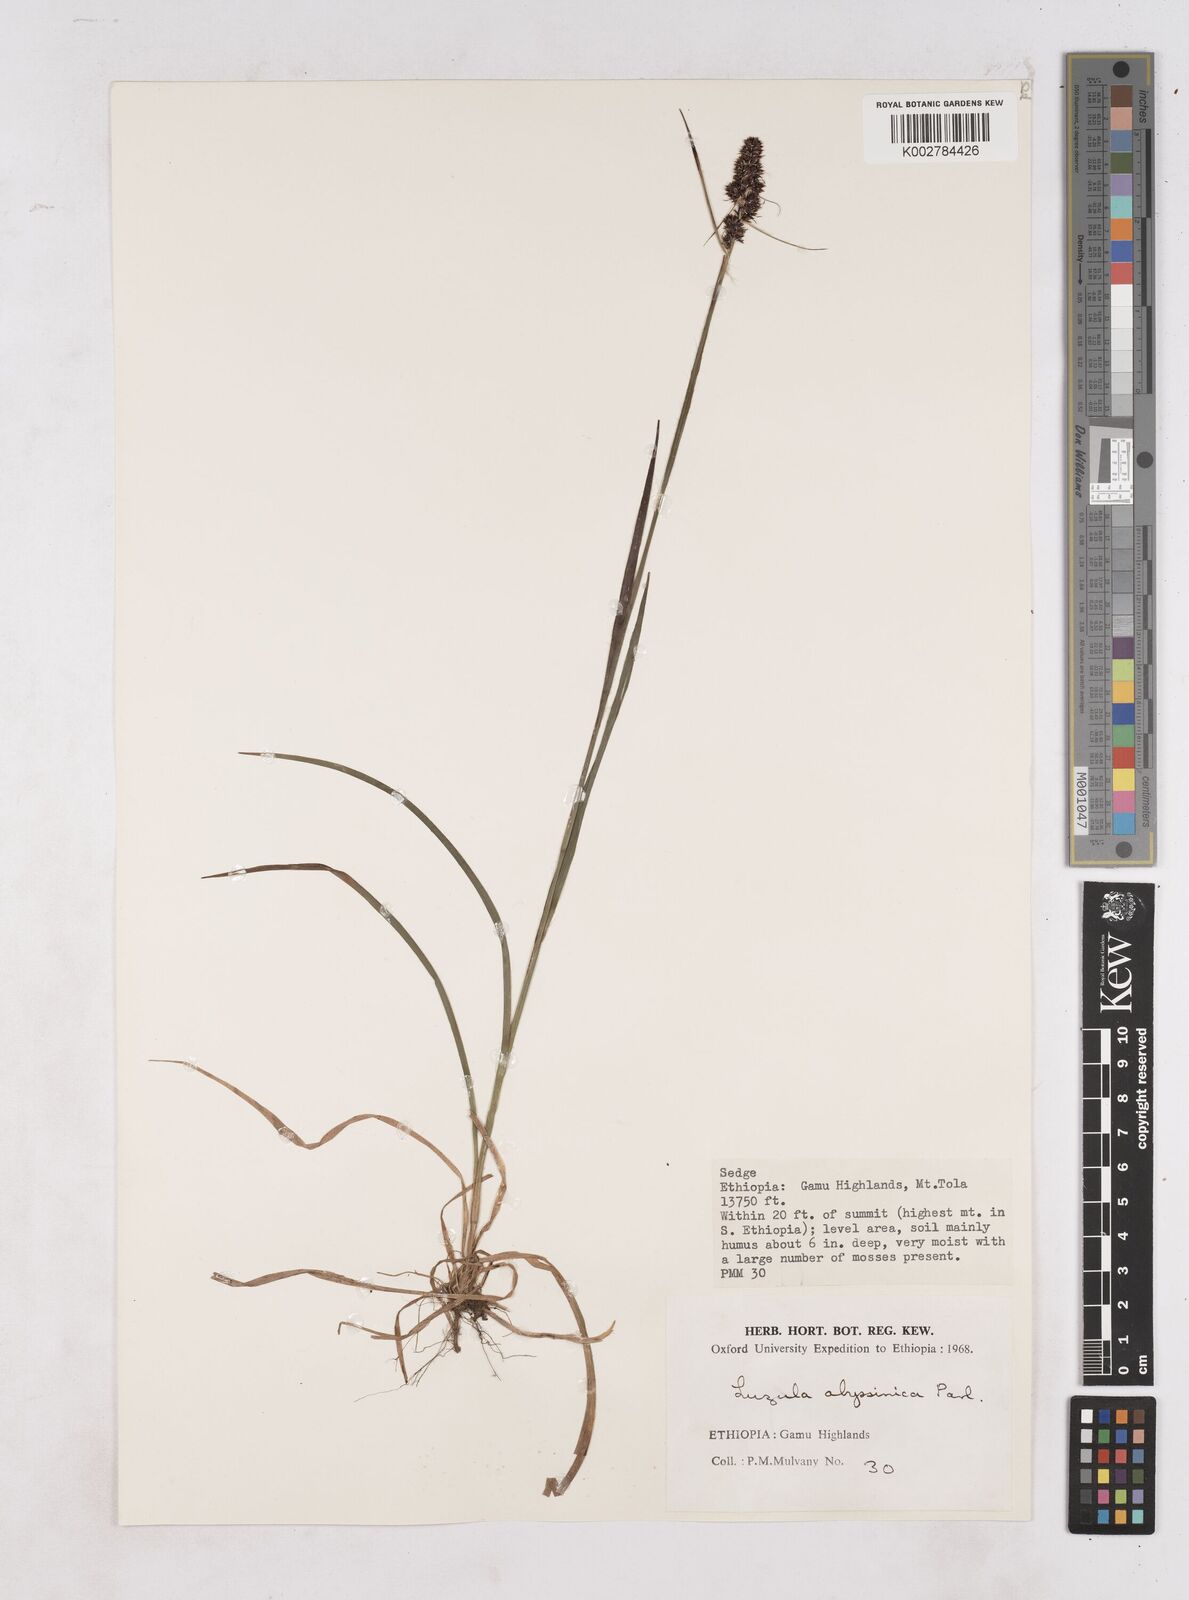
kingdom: Plantae
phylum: Tracheophyta
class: Liliopsida
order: Poales
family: Juncaceae
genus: Luzula
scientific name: Luzula abyssinica
